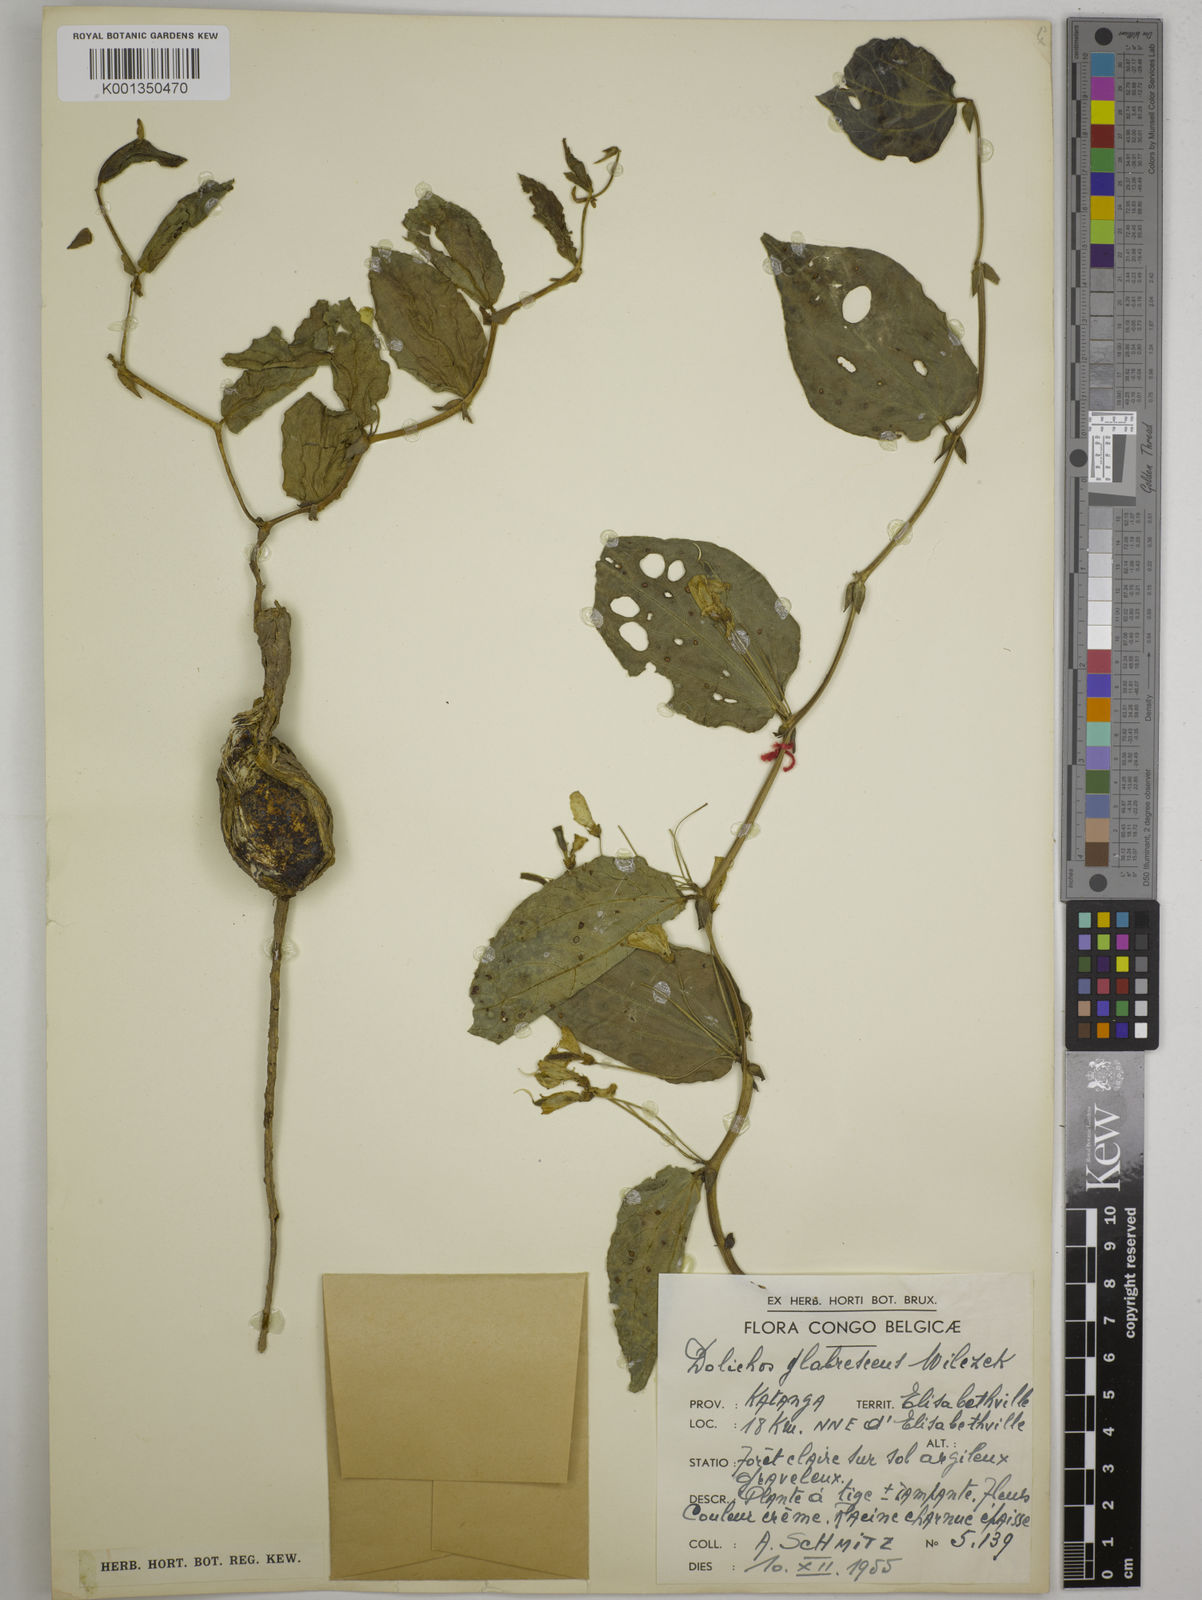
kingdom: Plantae
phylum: Tracheophyta
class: Magnoliopsida
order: Fabales
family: Fabaceae
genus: Dolichos
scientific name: Dolichos glabrescens
